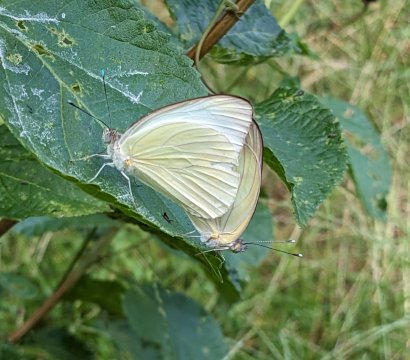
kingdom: Animalia
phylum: Arthropoda
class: Insecta
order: Lepidoptera
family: Pieridae
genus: Ascia
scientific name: Ascia monuste
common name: Great Southern White
